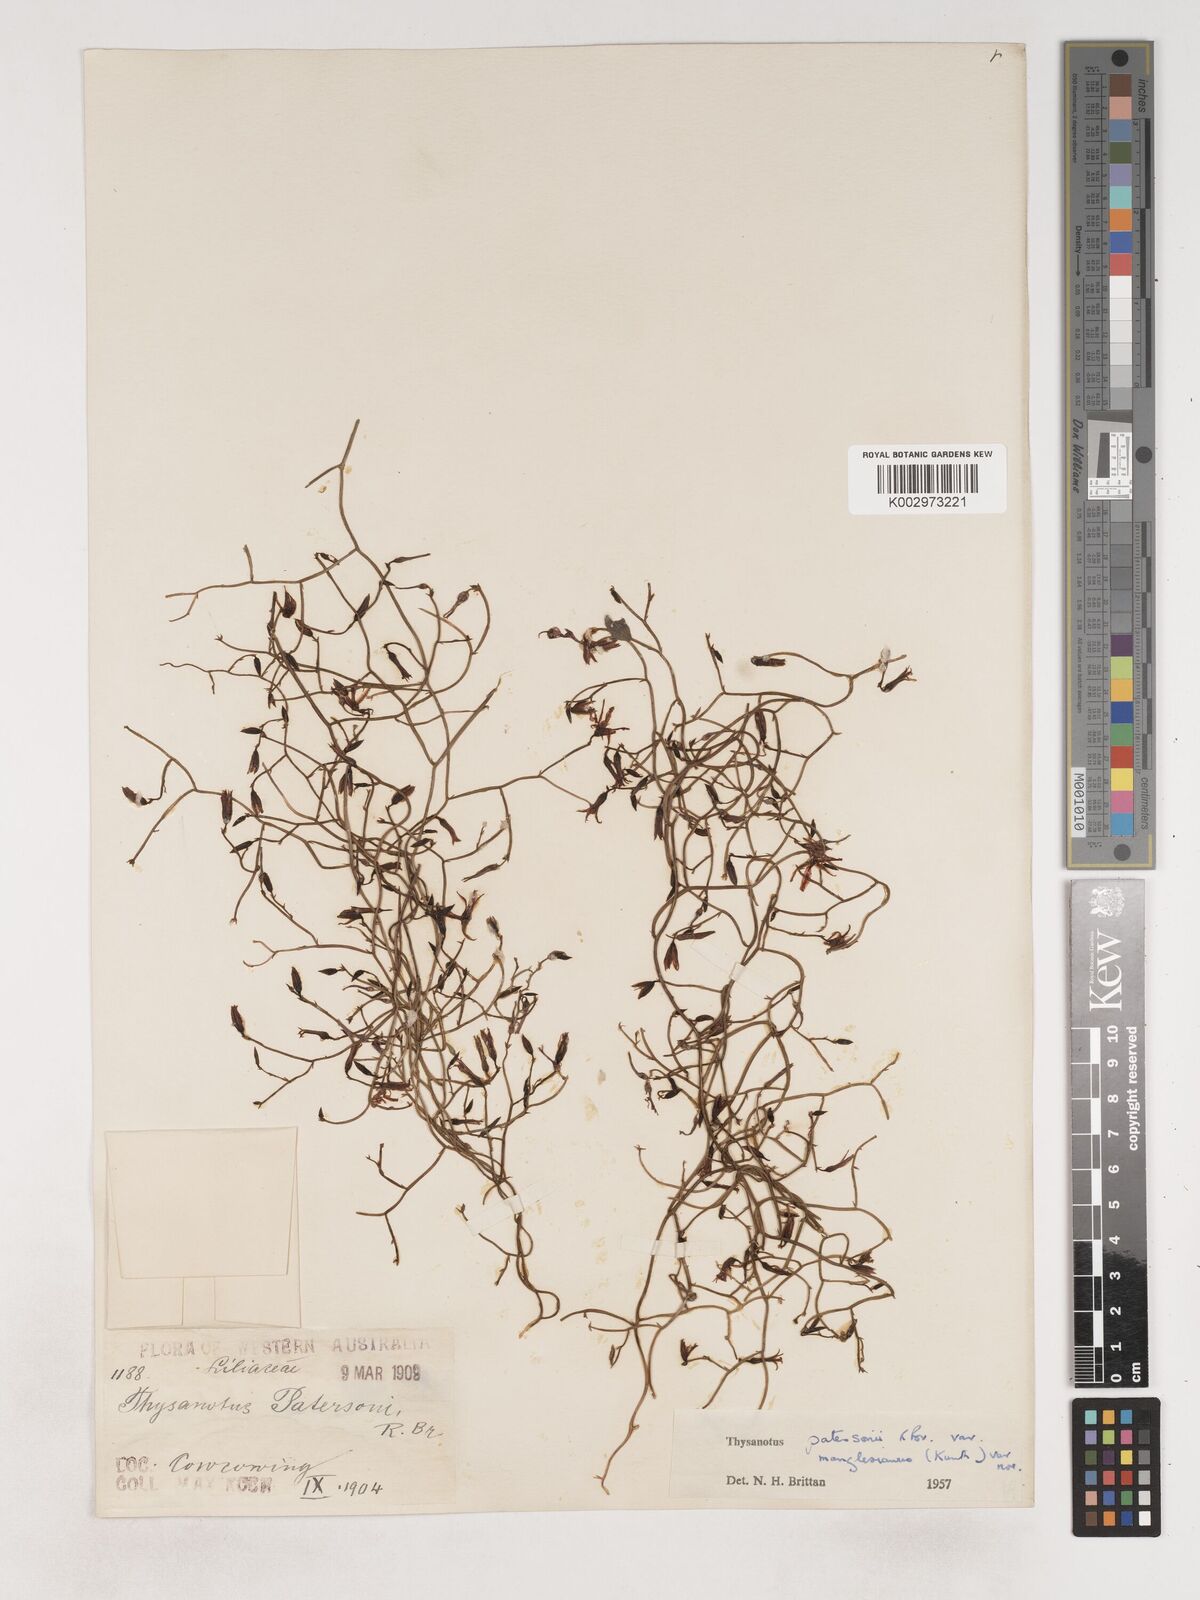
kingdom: Plantae
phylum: Tracheophyta
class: Liliopsida
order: Asparagales
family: Asparagaceae
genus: Thysanotus
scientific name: Thysanotus manglesianus
